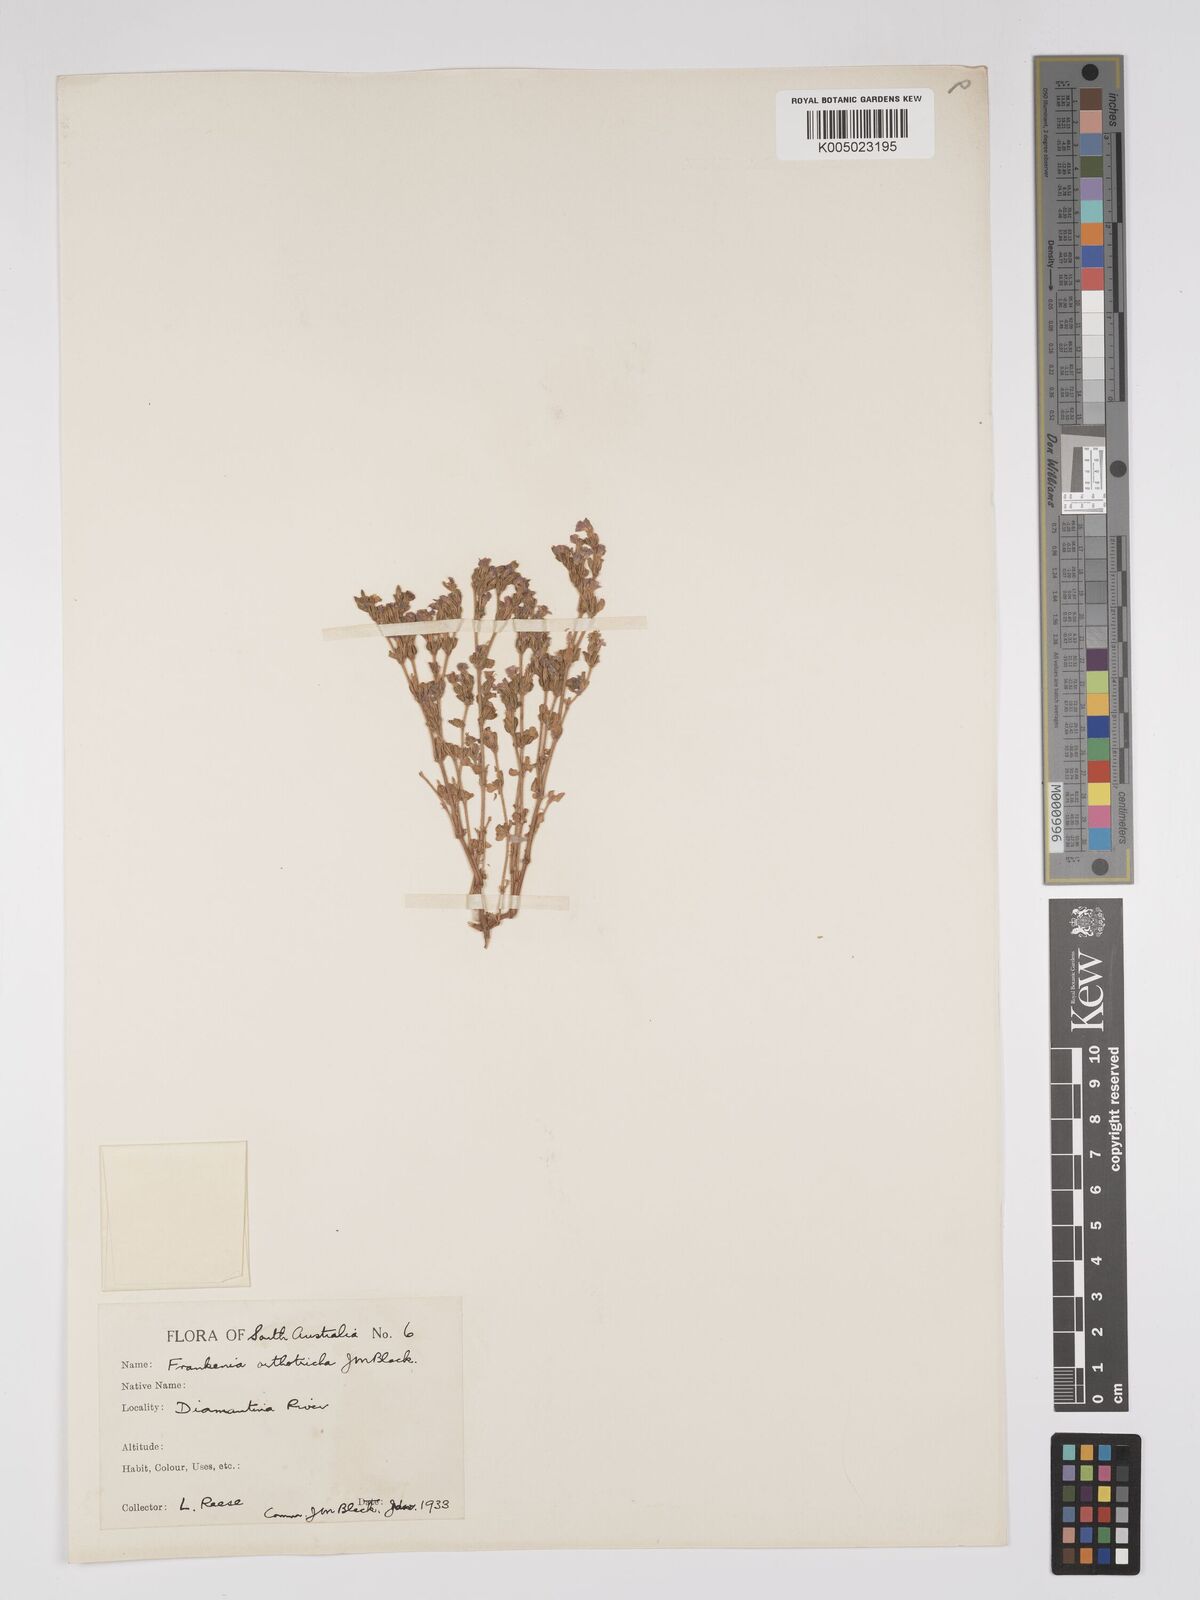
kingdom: Plantae
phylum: Tracheophyta
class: Magnoliopsida
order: Caryophyllales
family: Frankeniaceae
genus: Frankenia
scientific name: Frankenia orthotricha
